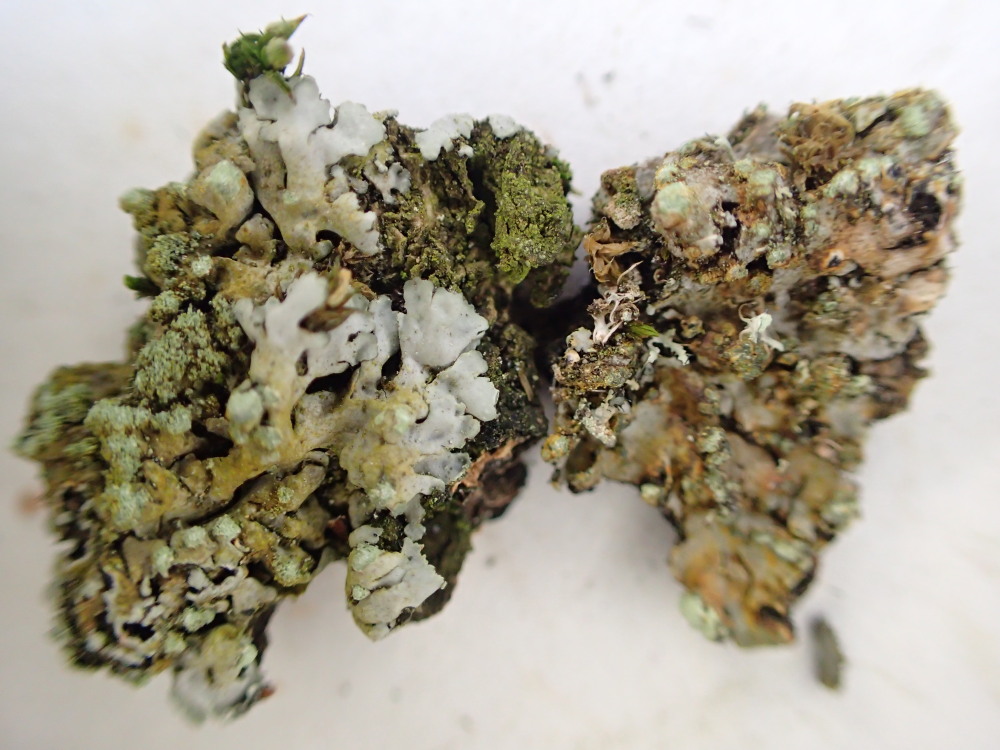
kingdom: Fungi
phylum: Ascomycota
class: Lecanoromycetes
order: Caliciales
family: Physciaceae
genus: Phaeophyscia
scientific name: Phaeophyscia orbicularis
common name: grågrøn rosetlav
